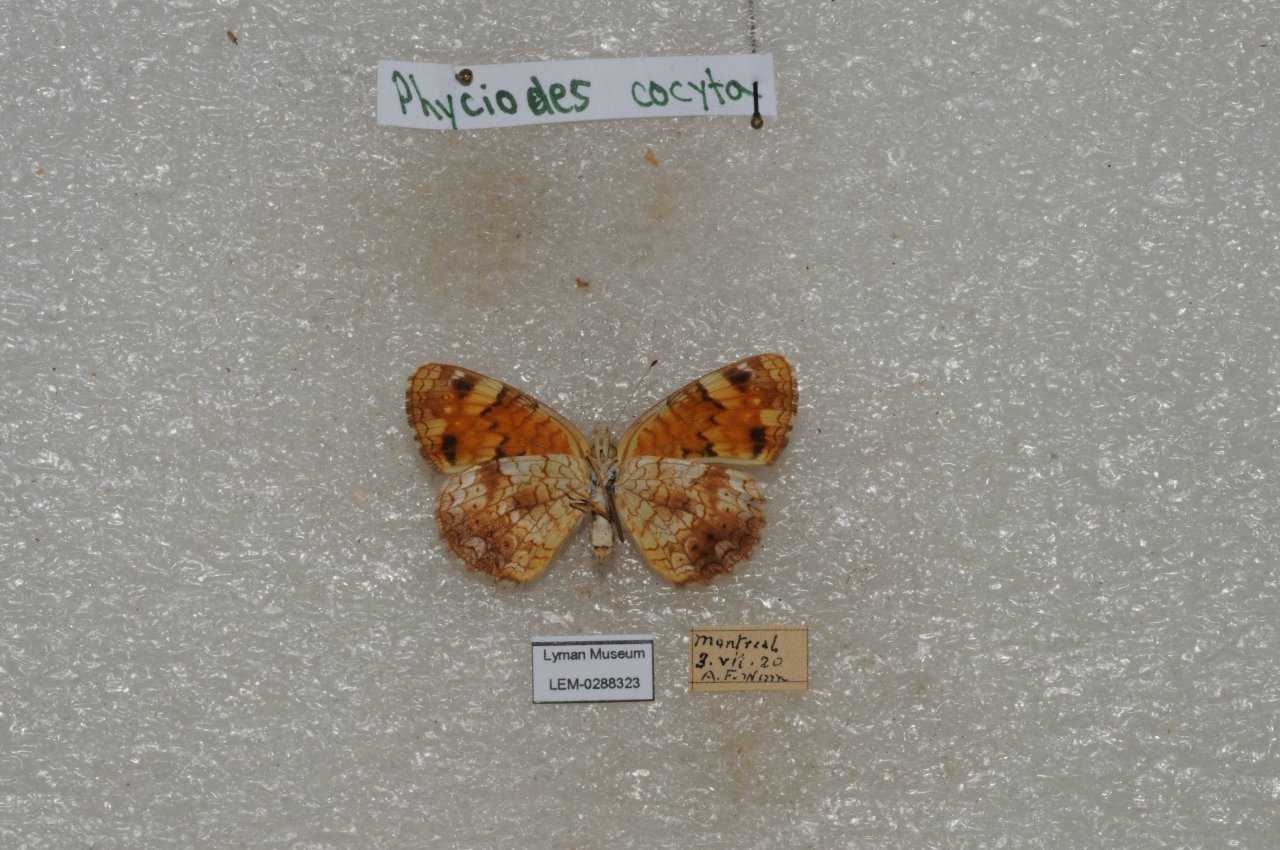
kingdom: Animalia
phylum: Arthropoda
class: Insecta
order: Lepidoptera
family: Nymphalidae
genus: Phyciodes
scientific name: Phyciodes tharos
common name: Northern Crescent
